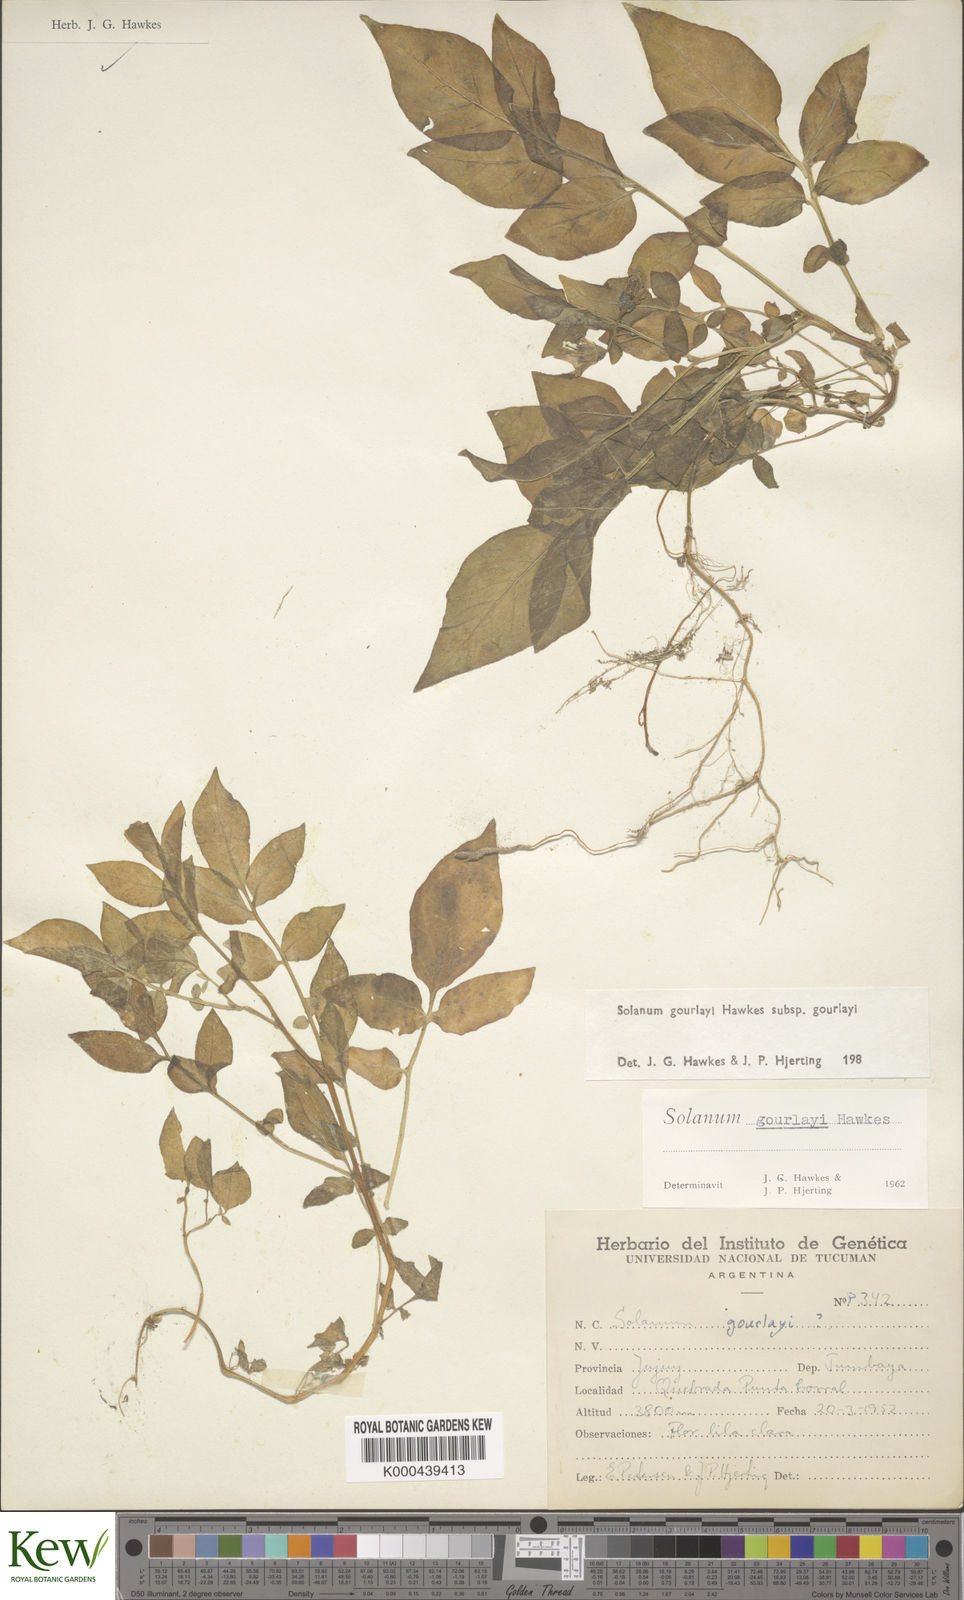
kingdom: Plantae
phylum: Tracheophyta
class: Magnoliopsida
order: Solanales
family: Solanaceae
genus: Solanum
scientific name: Solanum brevicaule
